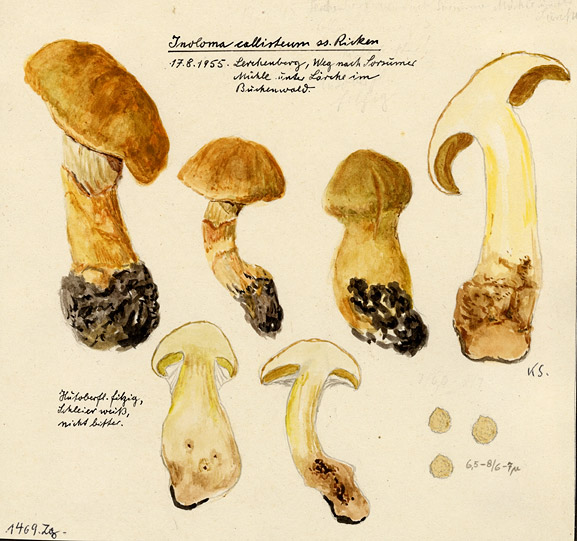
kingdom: Fungi
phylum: Basidiomycota
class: Agaricomycetes
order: Agaricales
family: Cortinariaceae
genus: Aureonarius
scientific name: Aureonarius callisteus
